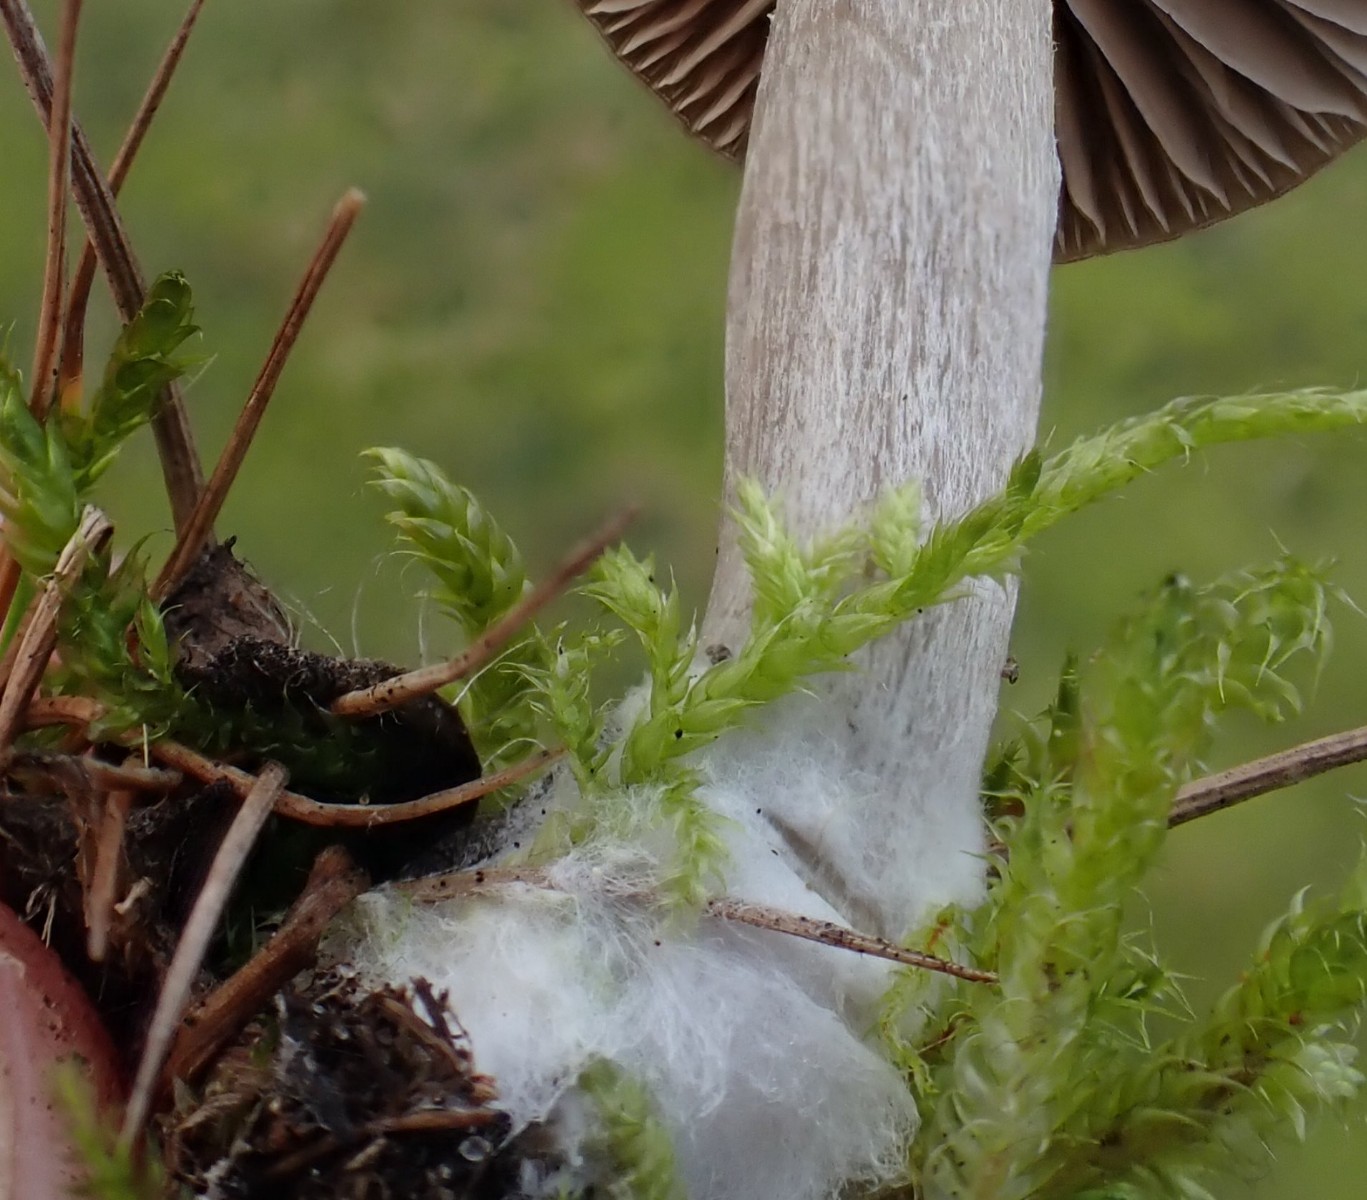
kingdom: Fungi
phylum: Basidiomycota
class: Agaricomycetes
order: Agaricales
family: Entolomataceae
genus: Entoloma
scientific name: Entoloma
